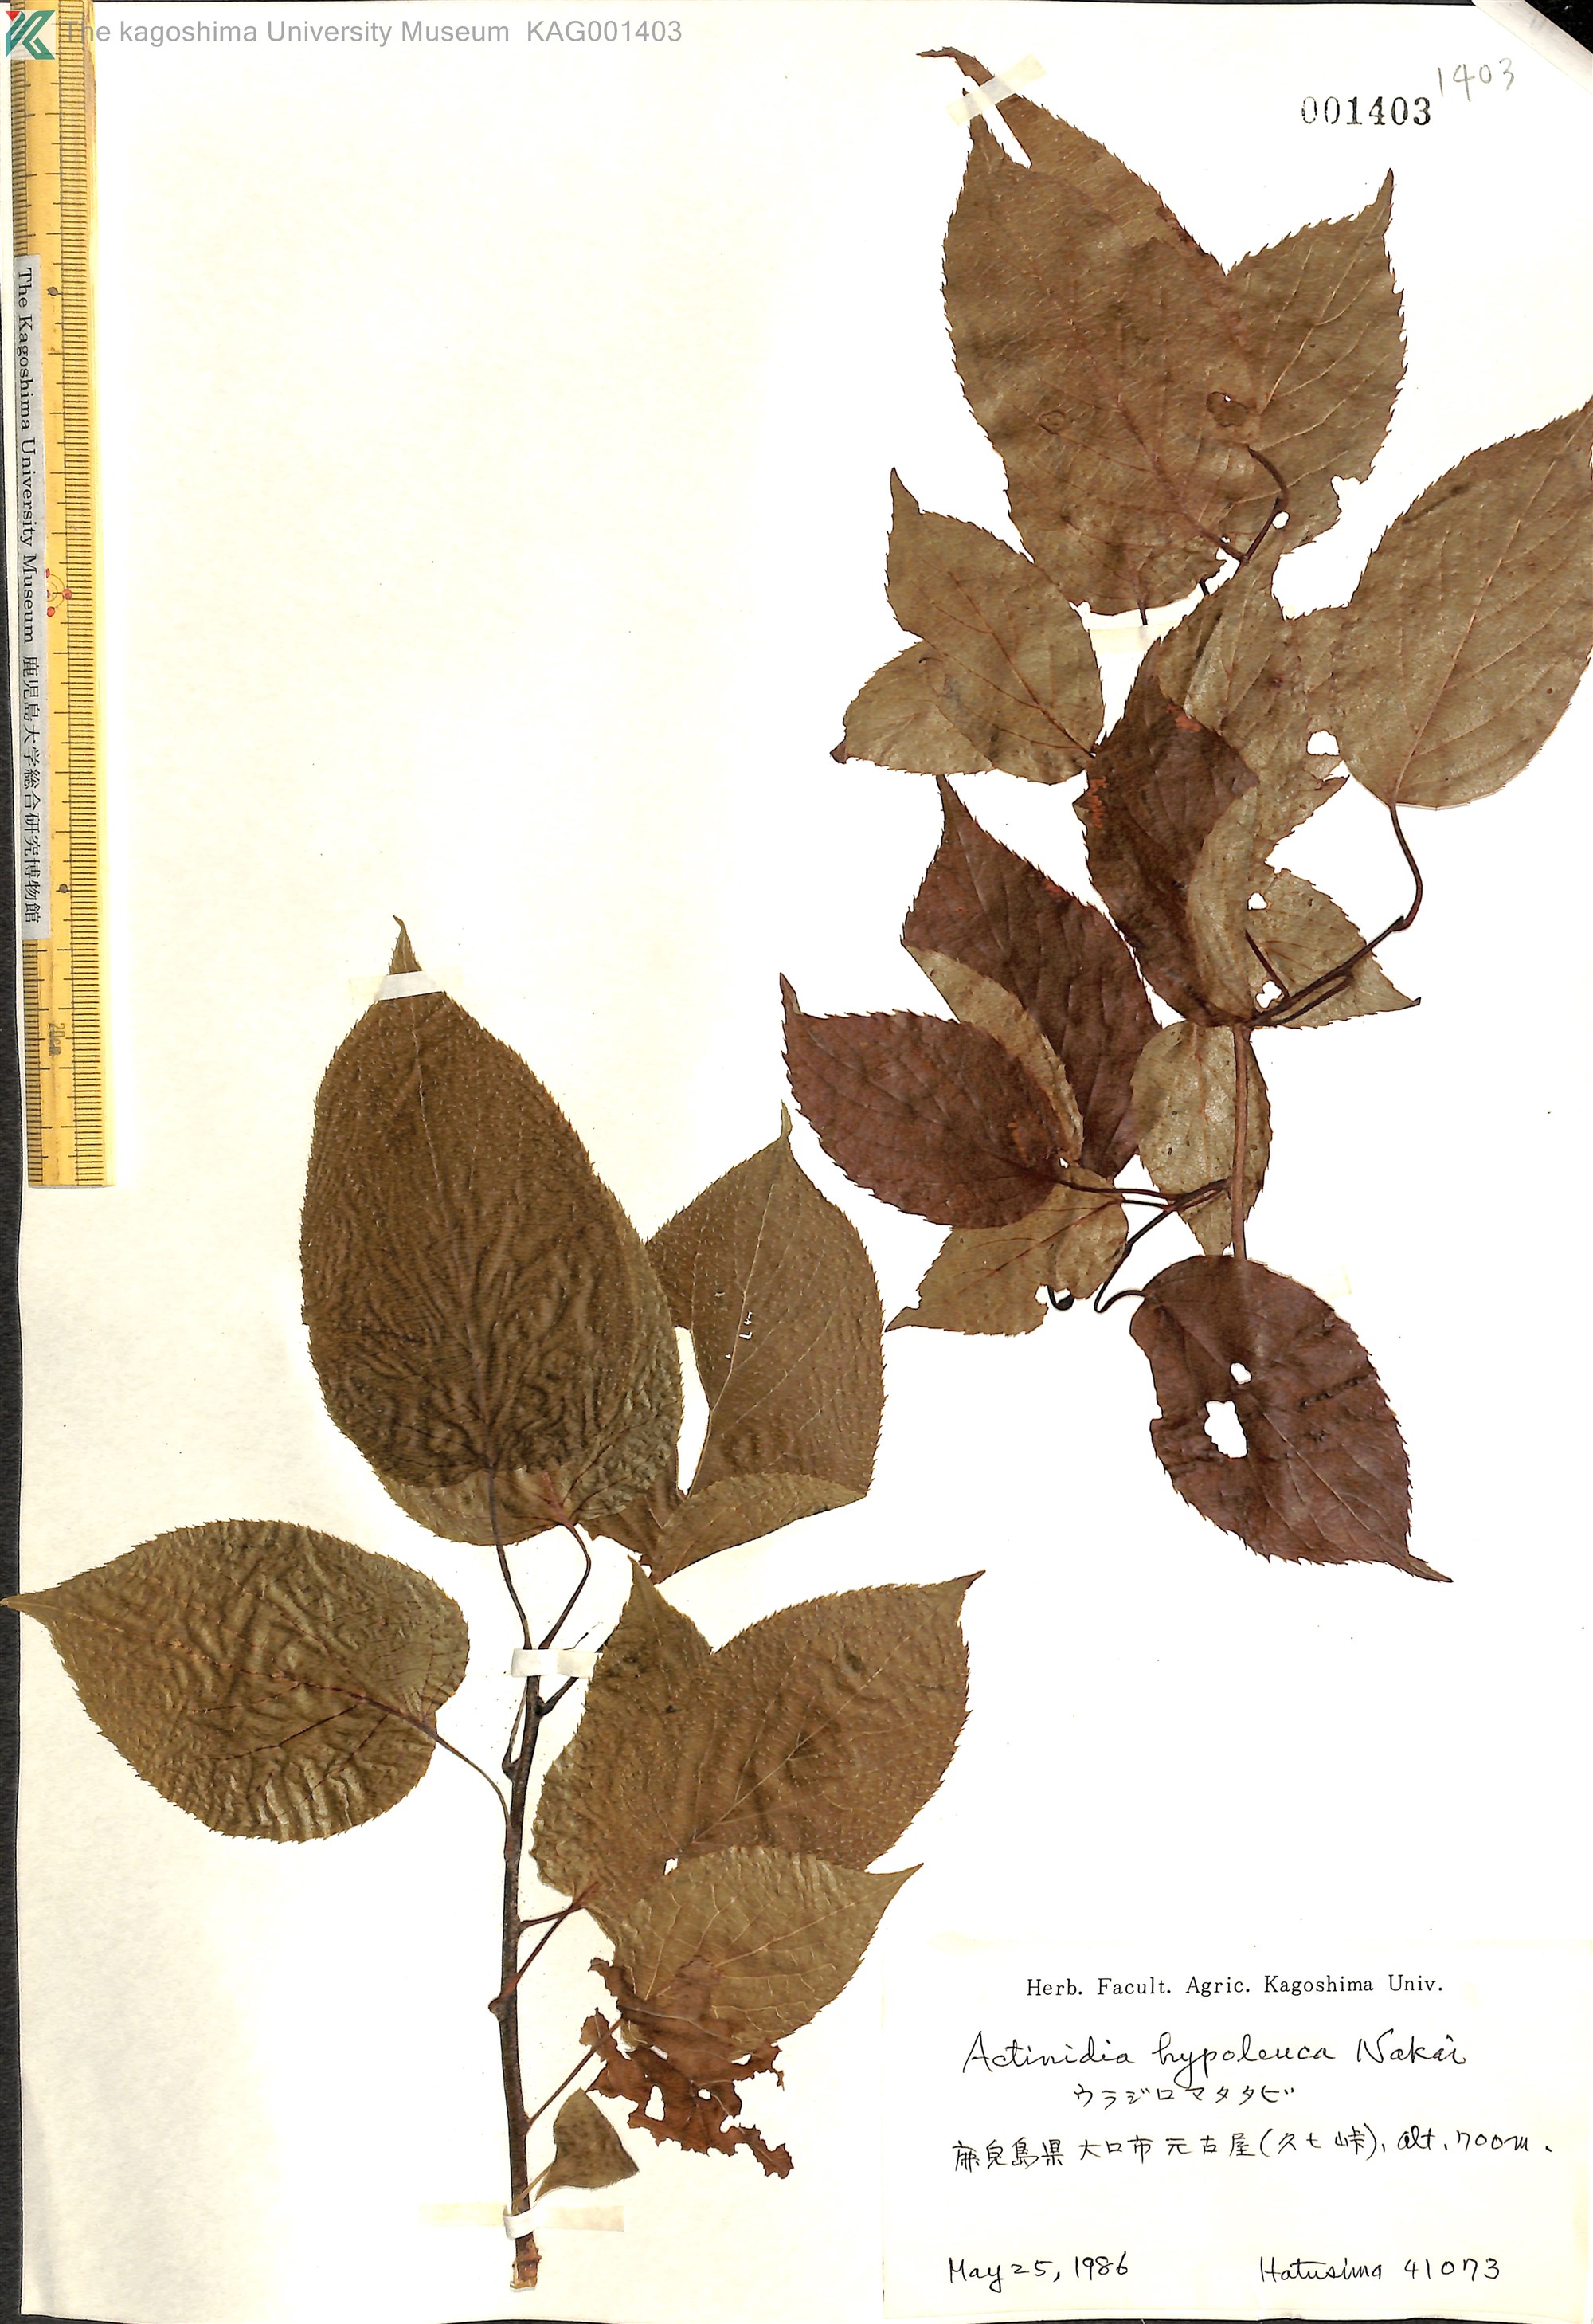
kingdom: Plantae
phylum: Tracheophyta
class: Magnoliopsida
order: Ericales
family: Actinidiaceae
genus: Actinidia
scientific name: Actinidia arguta
